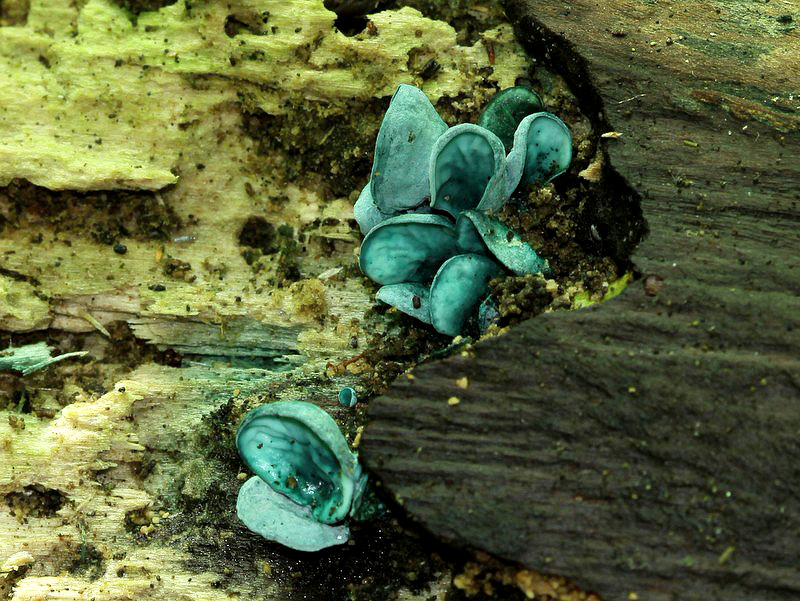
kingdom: Fungi
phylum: Ascomycota
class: Leotiomycetes
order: Helotiales
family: Chlorociboriaceae
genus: Chlorociboria
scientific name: Chlorociboria aeruginascens
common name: almindelig grønskive
